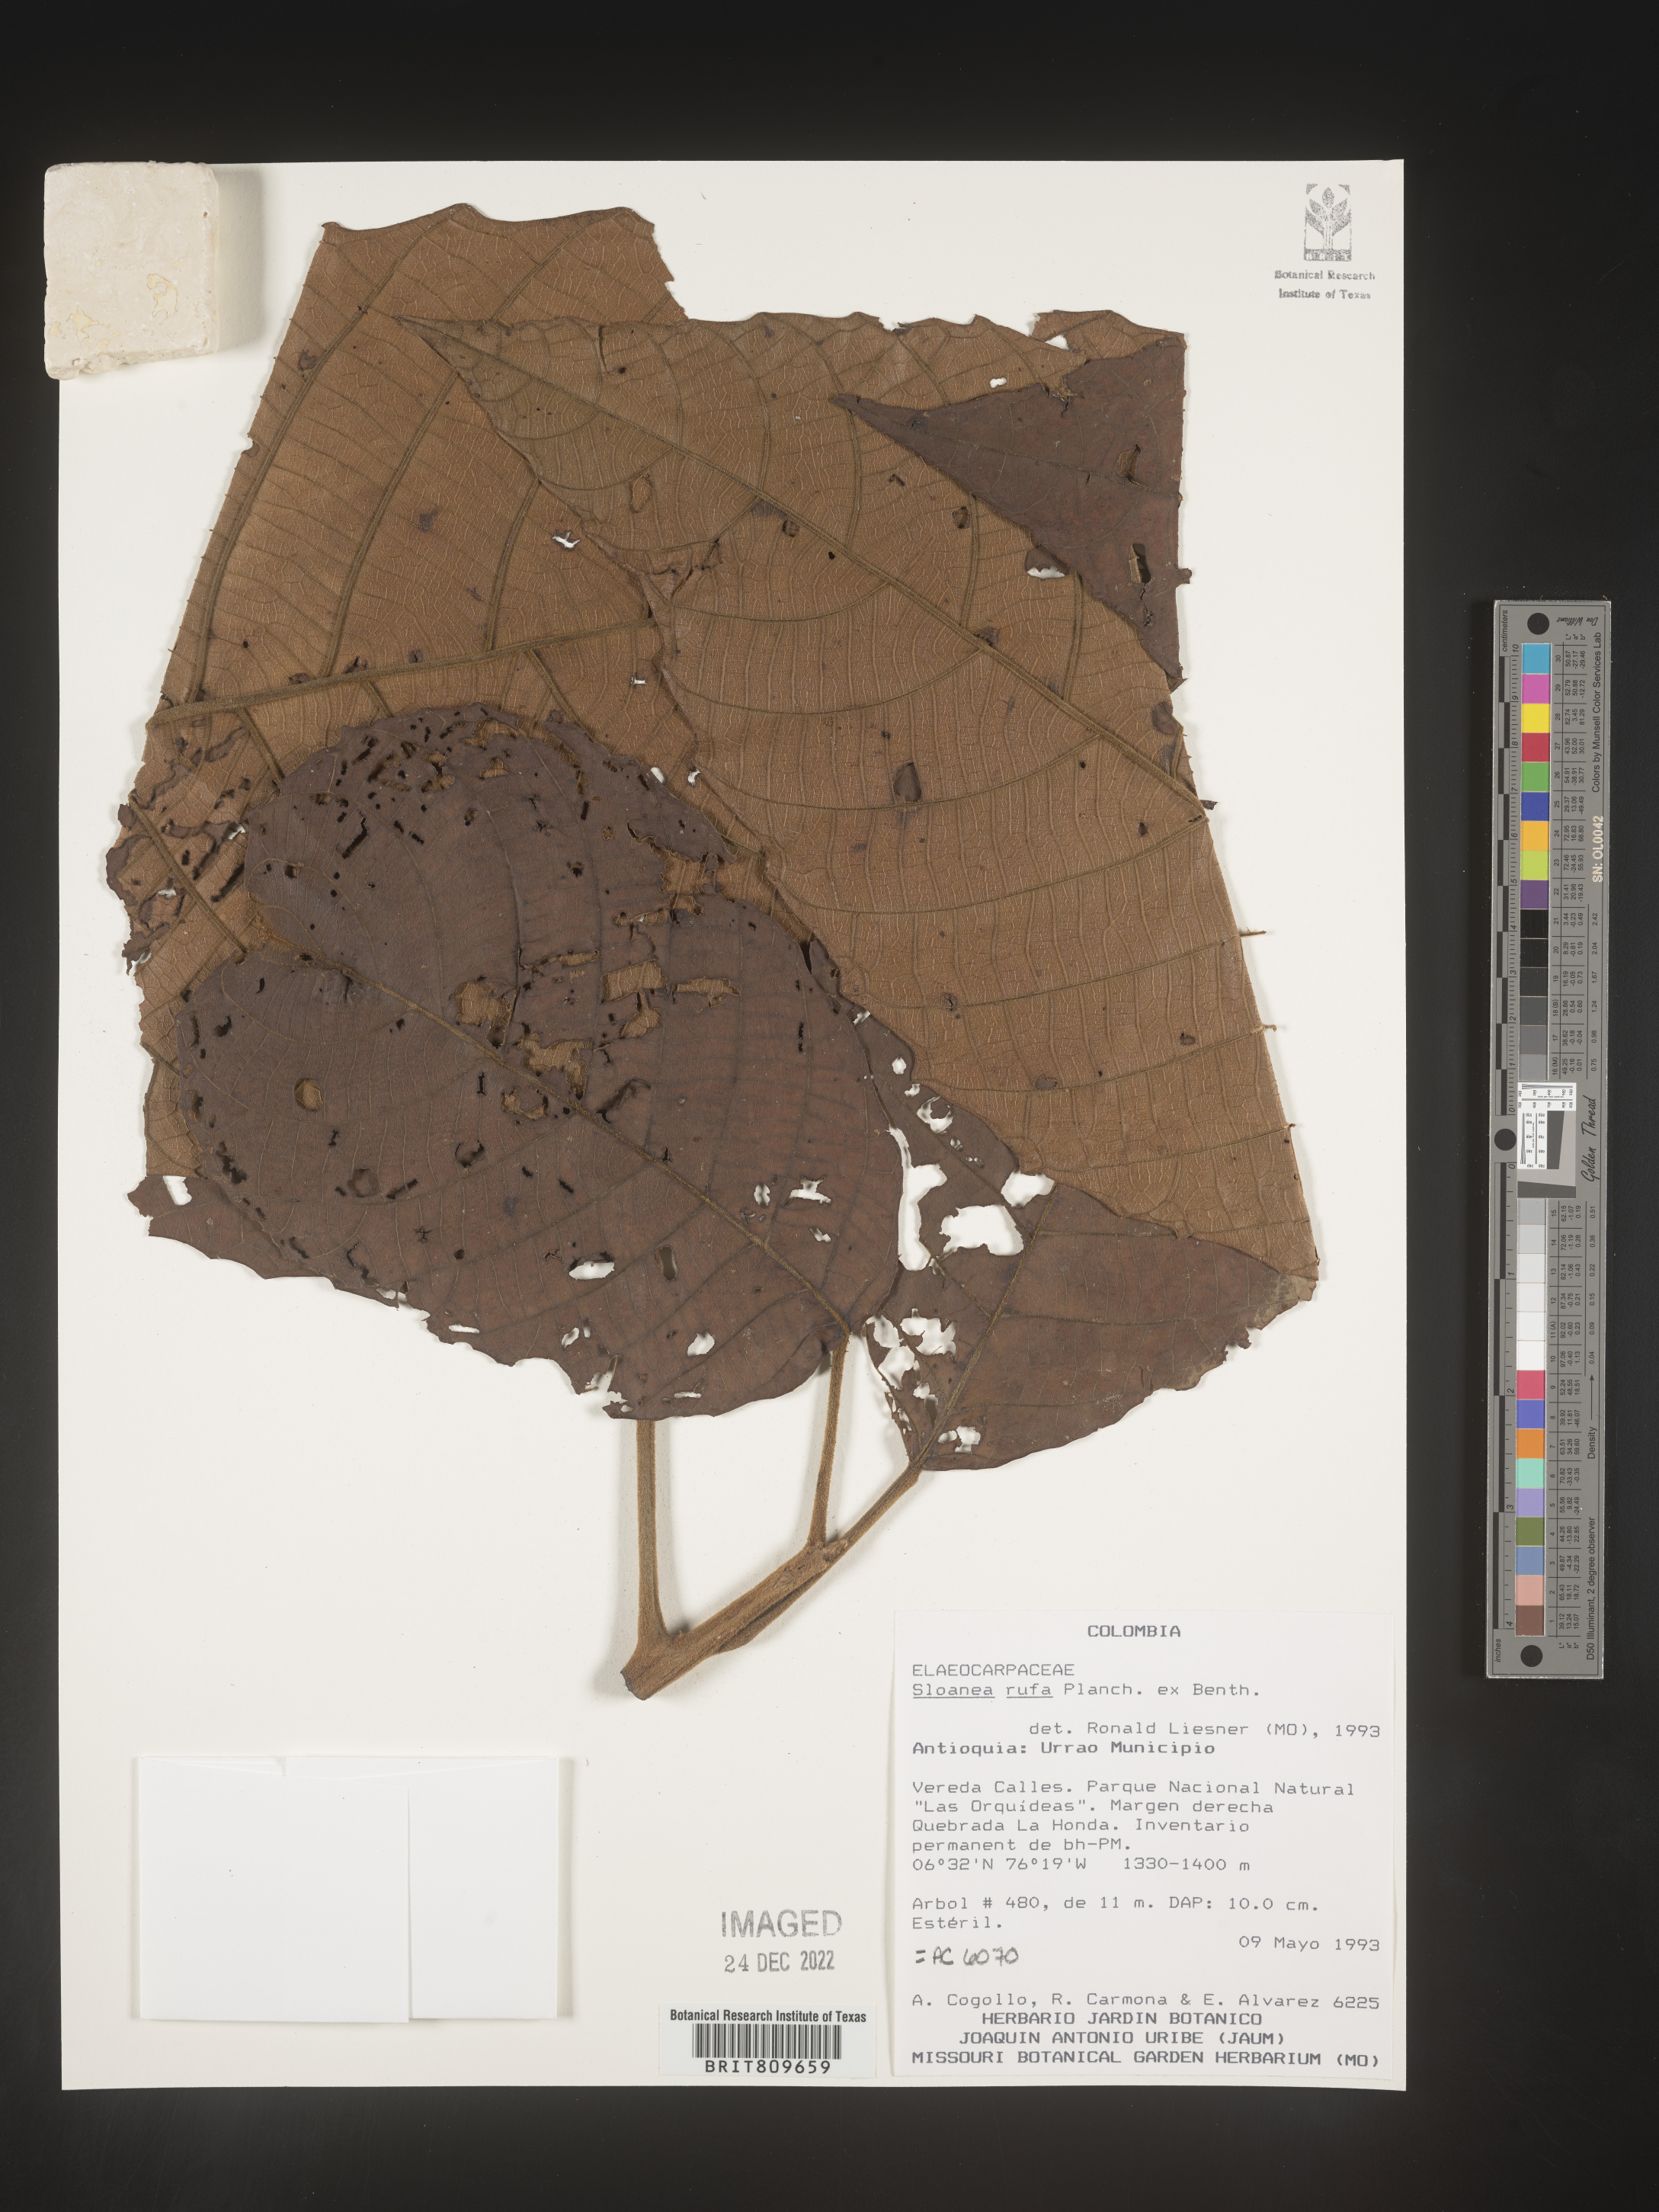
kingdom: Plantae
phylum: Tracheophyta
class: Magnoliopsida
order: Oxalidales
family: Elaeocarpaceae
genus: Sloanea
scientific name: Sloanea
